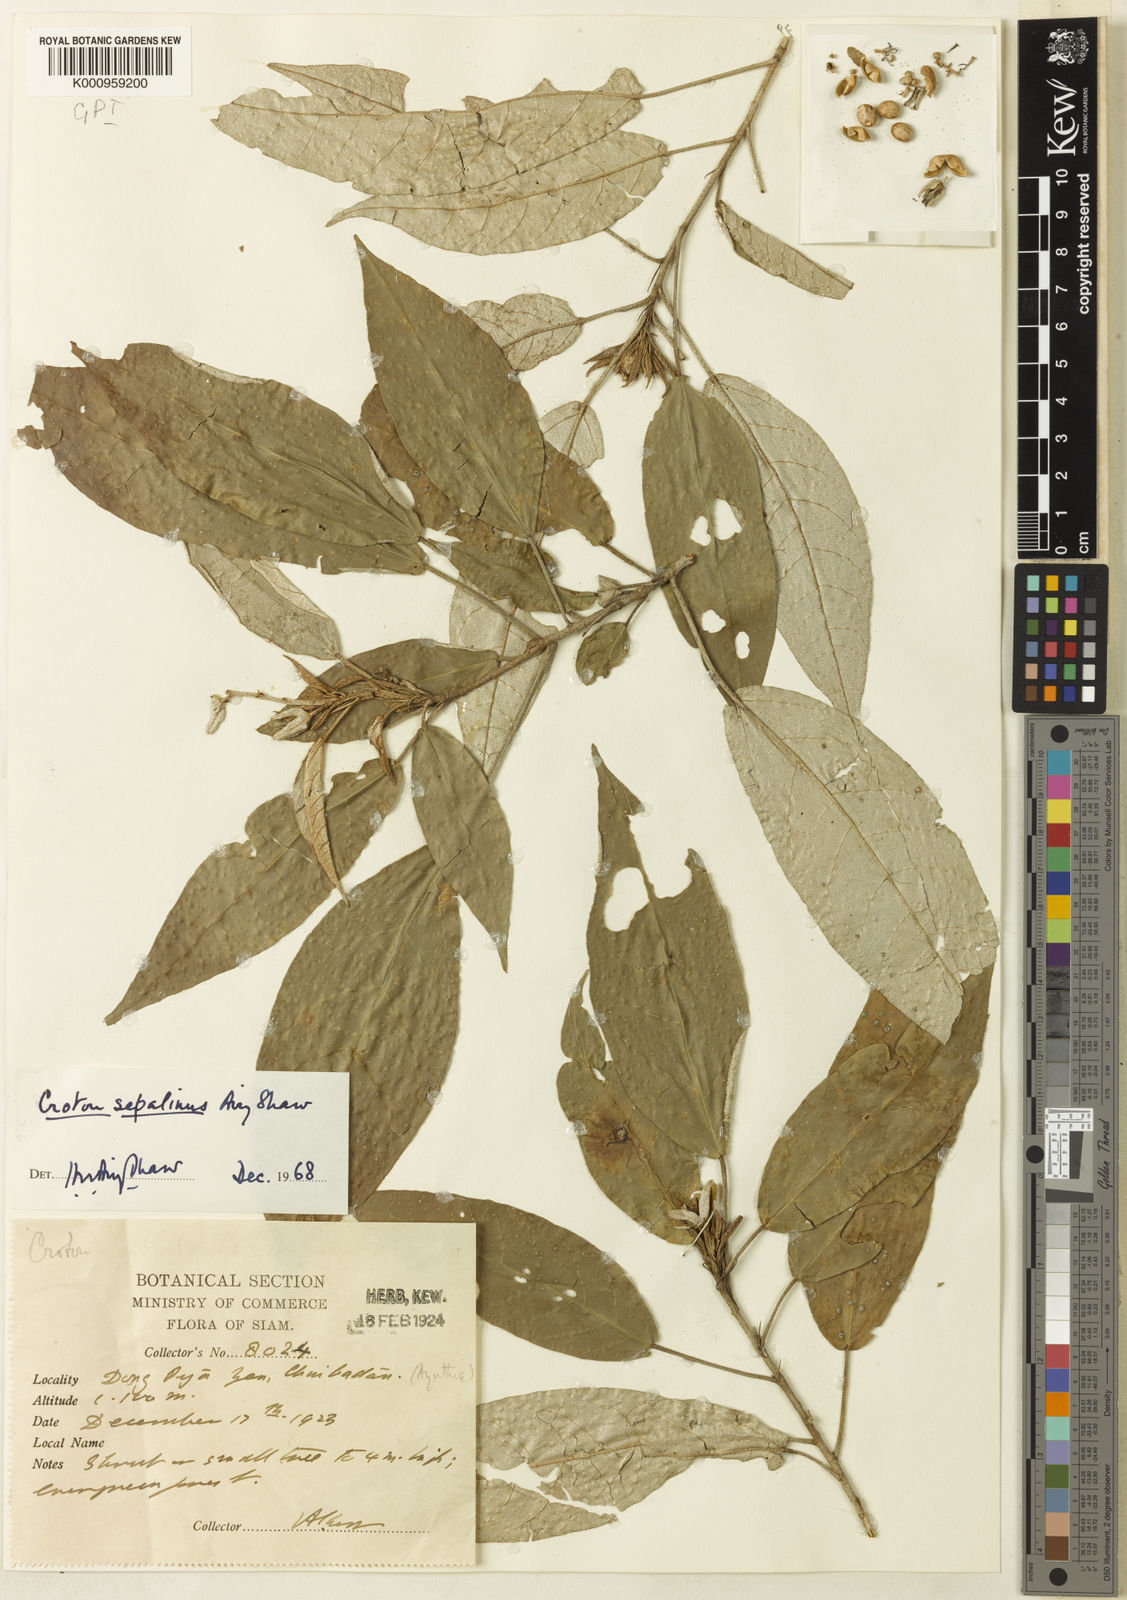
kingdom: Plantae
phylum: Tracheophyta
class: Magnoliopsida
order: Malpighiales
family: Euphorbiaceae
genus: Croton
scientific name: Croton sepalinus
